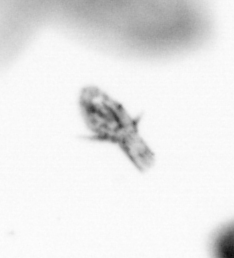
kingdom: Animalia
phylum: Arthropoda
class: Copepoda
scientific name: Copepoda
